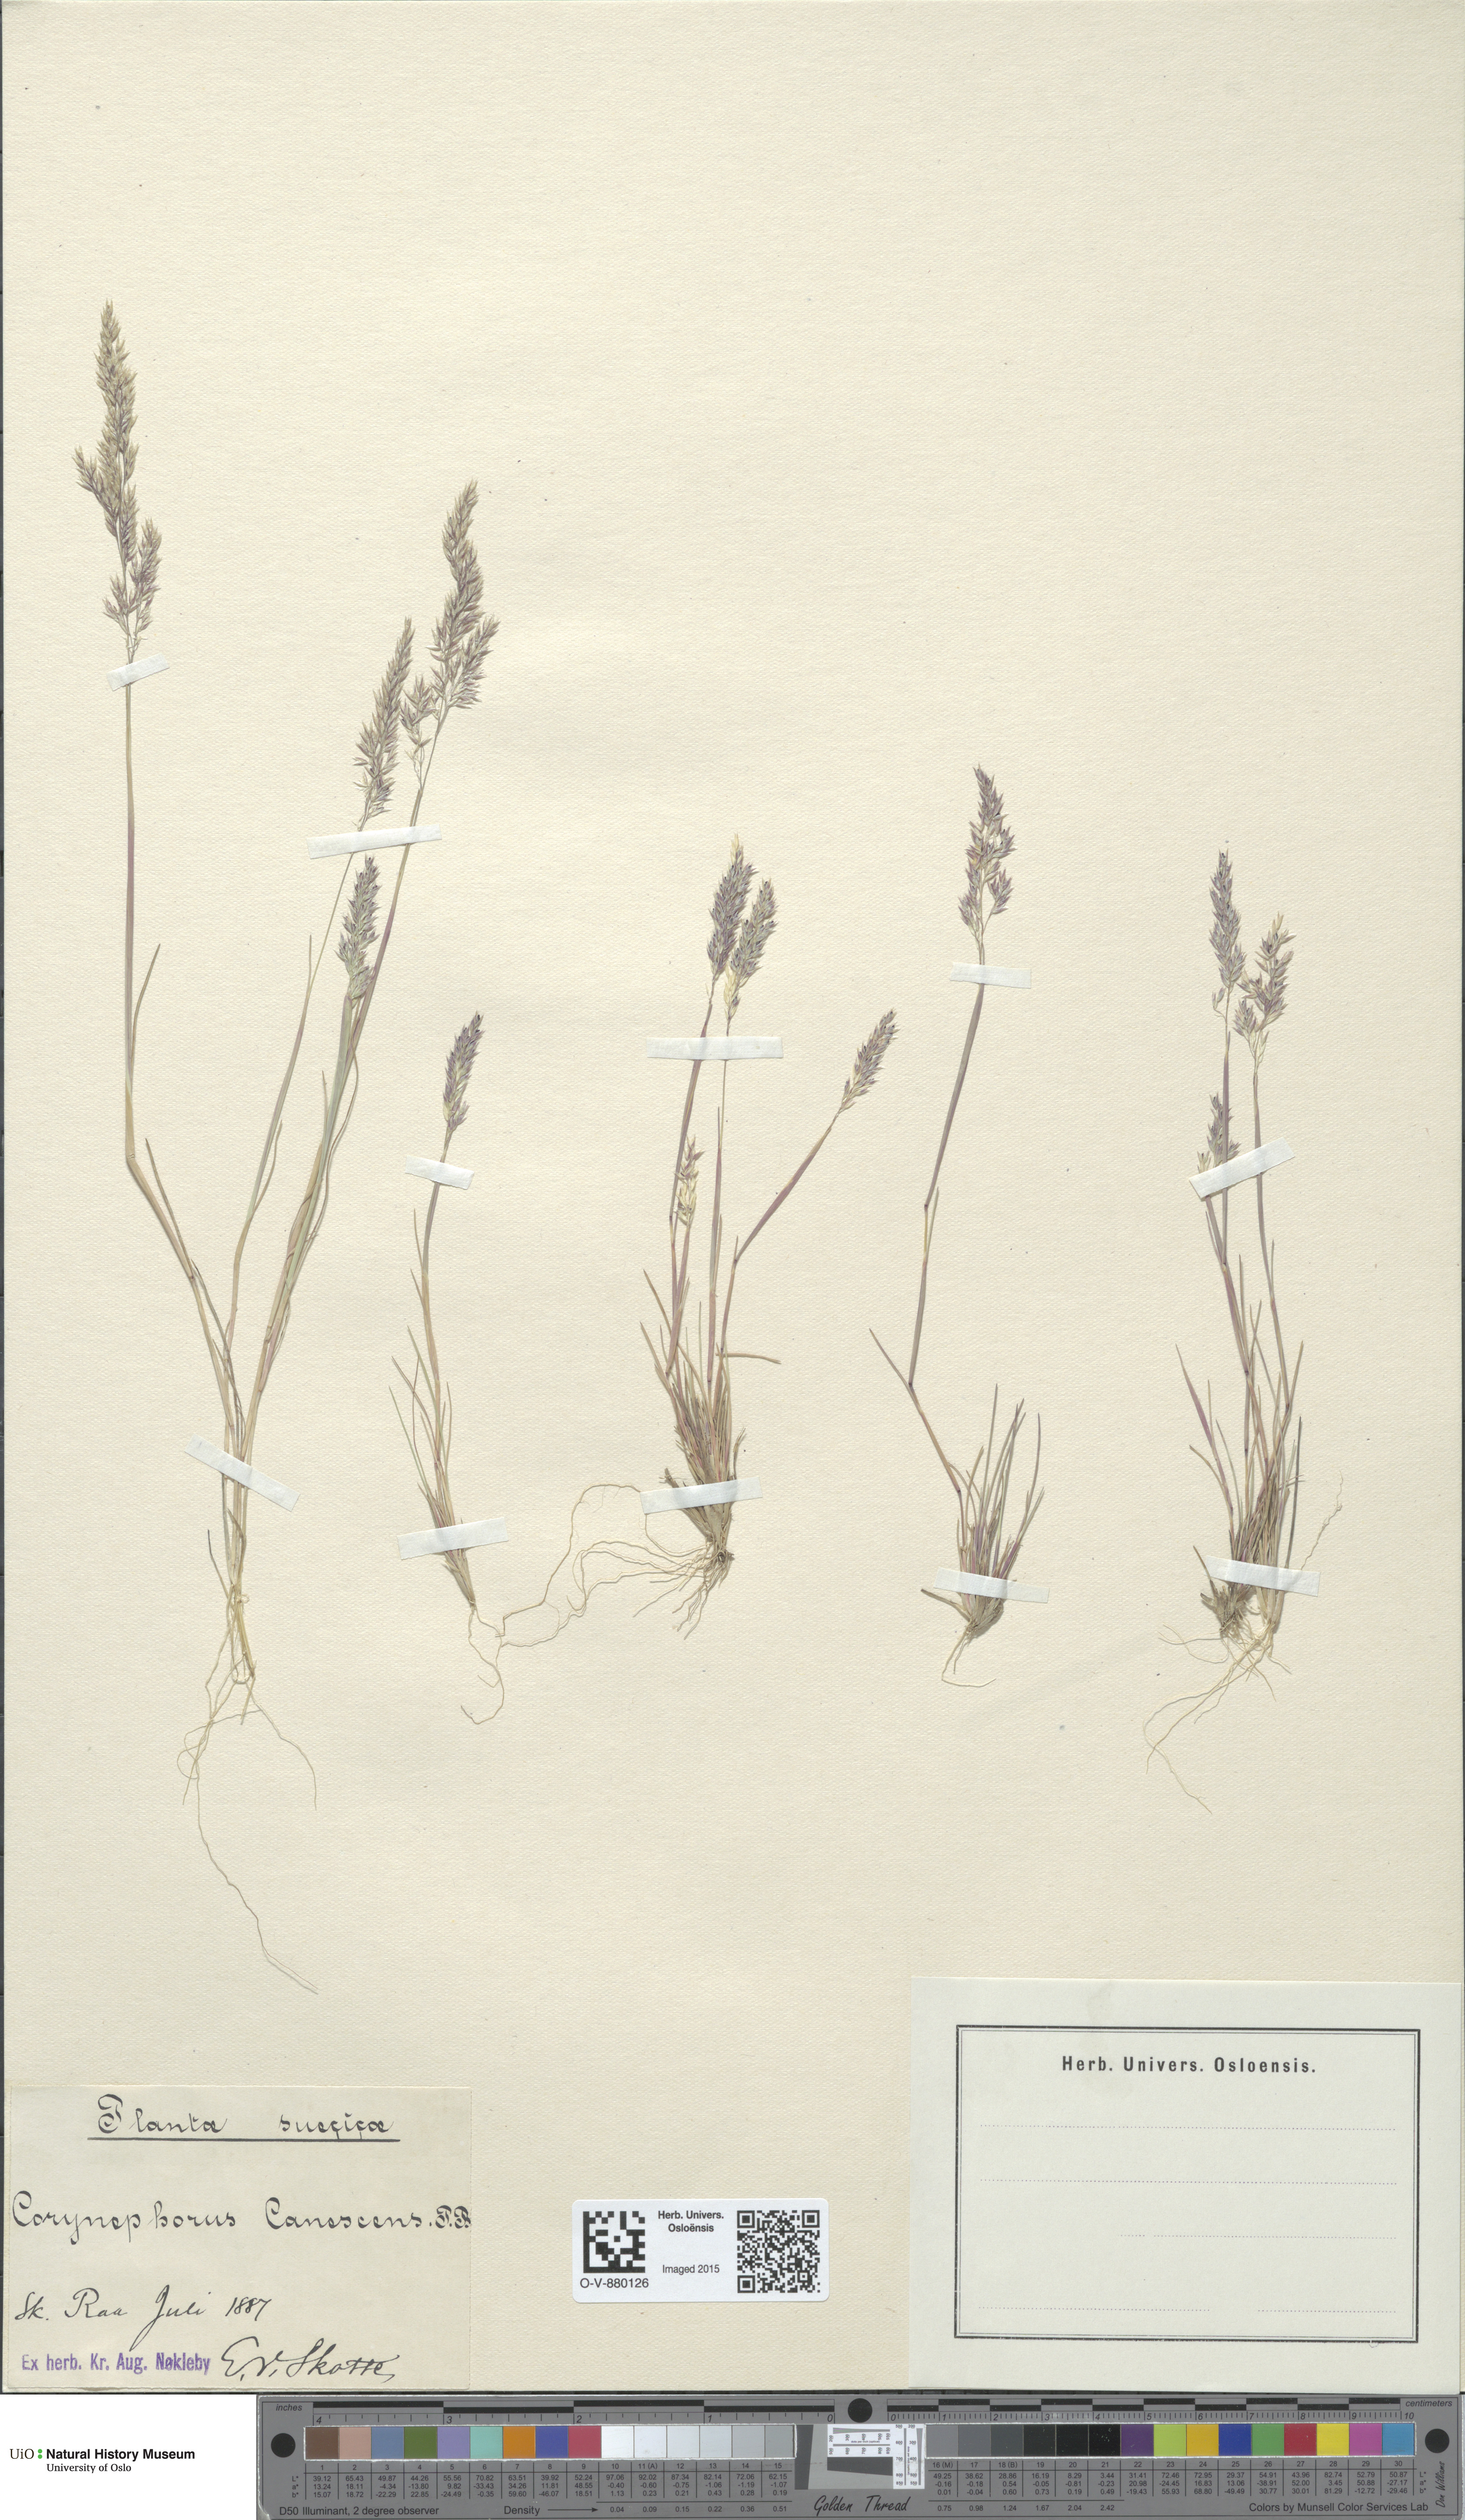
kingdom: Plantae
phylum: Tracheophyta
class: Liliopsida
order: Poales
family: Poaceae
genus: Corynephorus
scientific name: Corynephorus canescens
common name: Grey hair-grass
